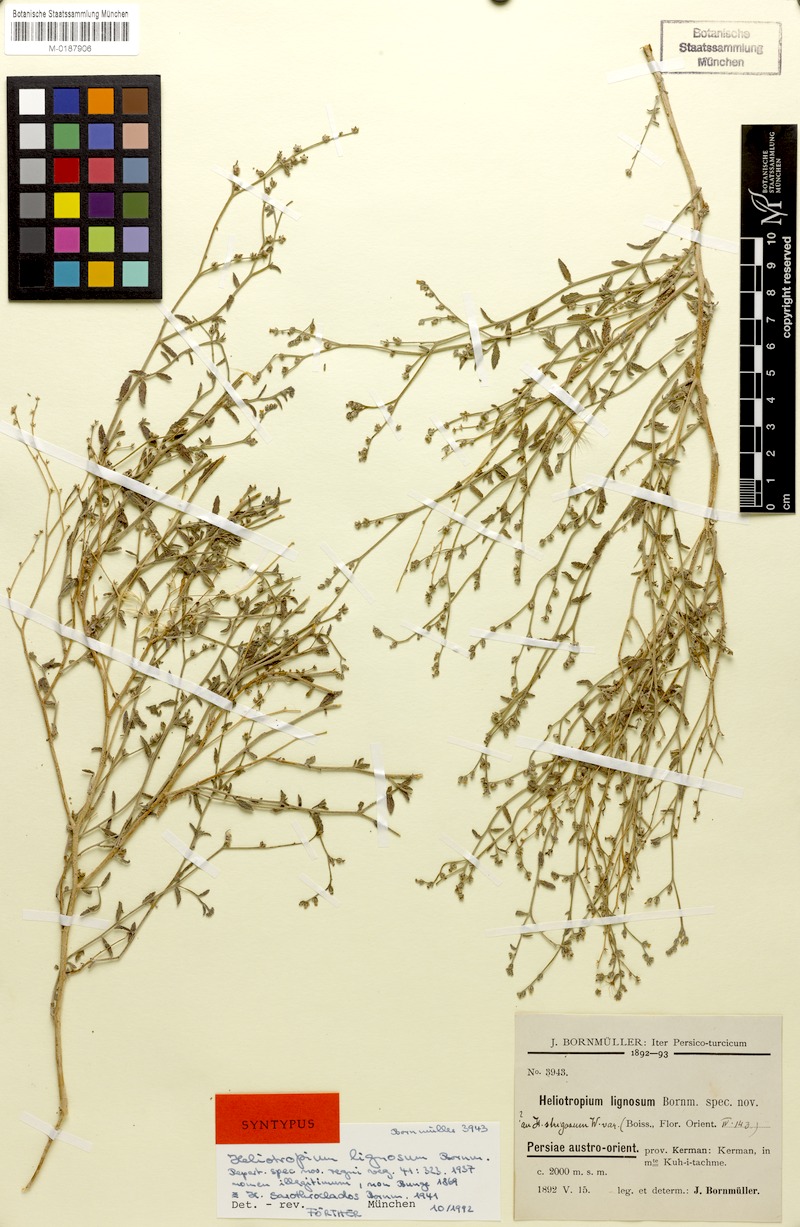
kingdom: Plantae
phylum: Tracheophyta
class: Magnoliopsida
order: Boraginales
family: Heliotropiaceae
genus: Heliotropium
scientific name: Heliotropium bacciferum
